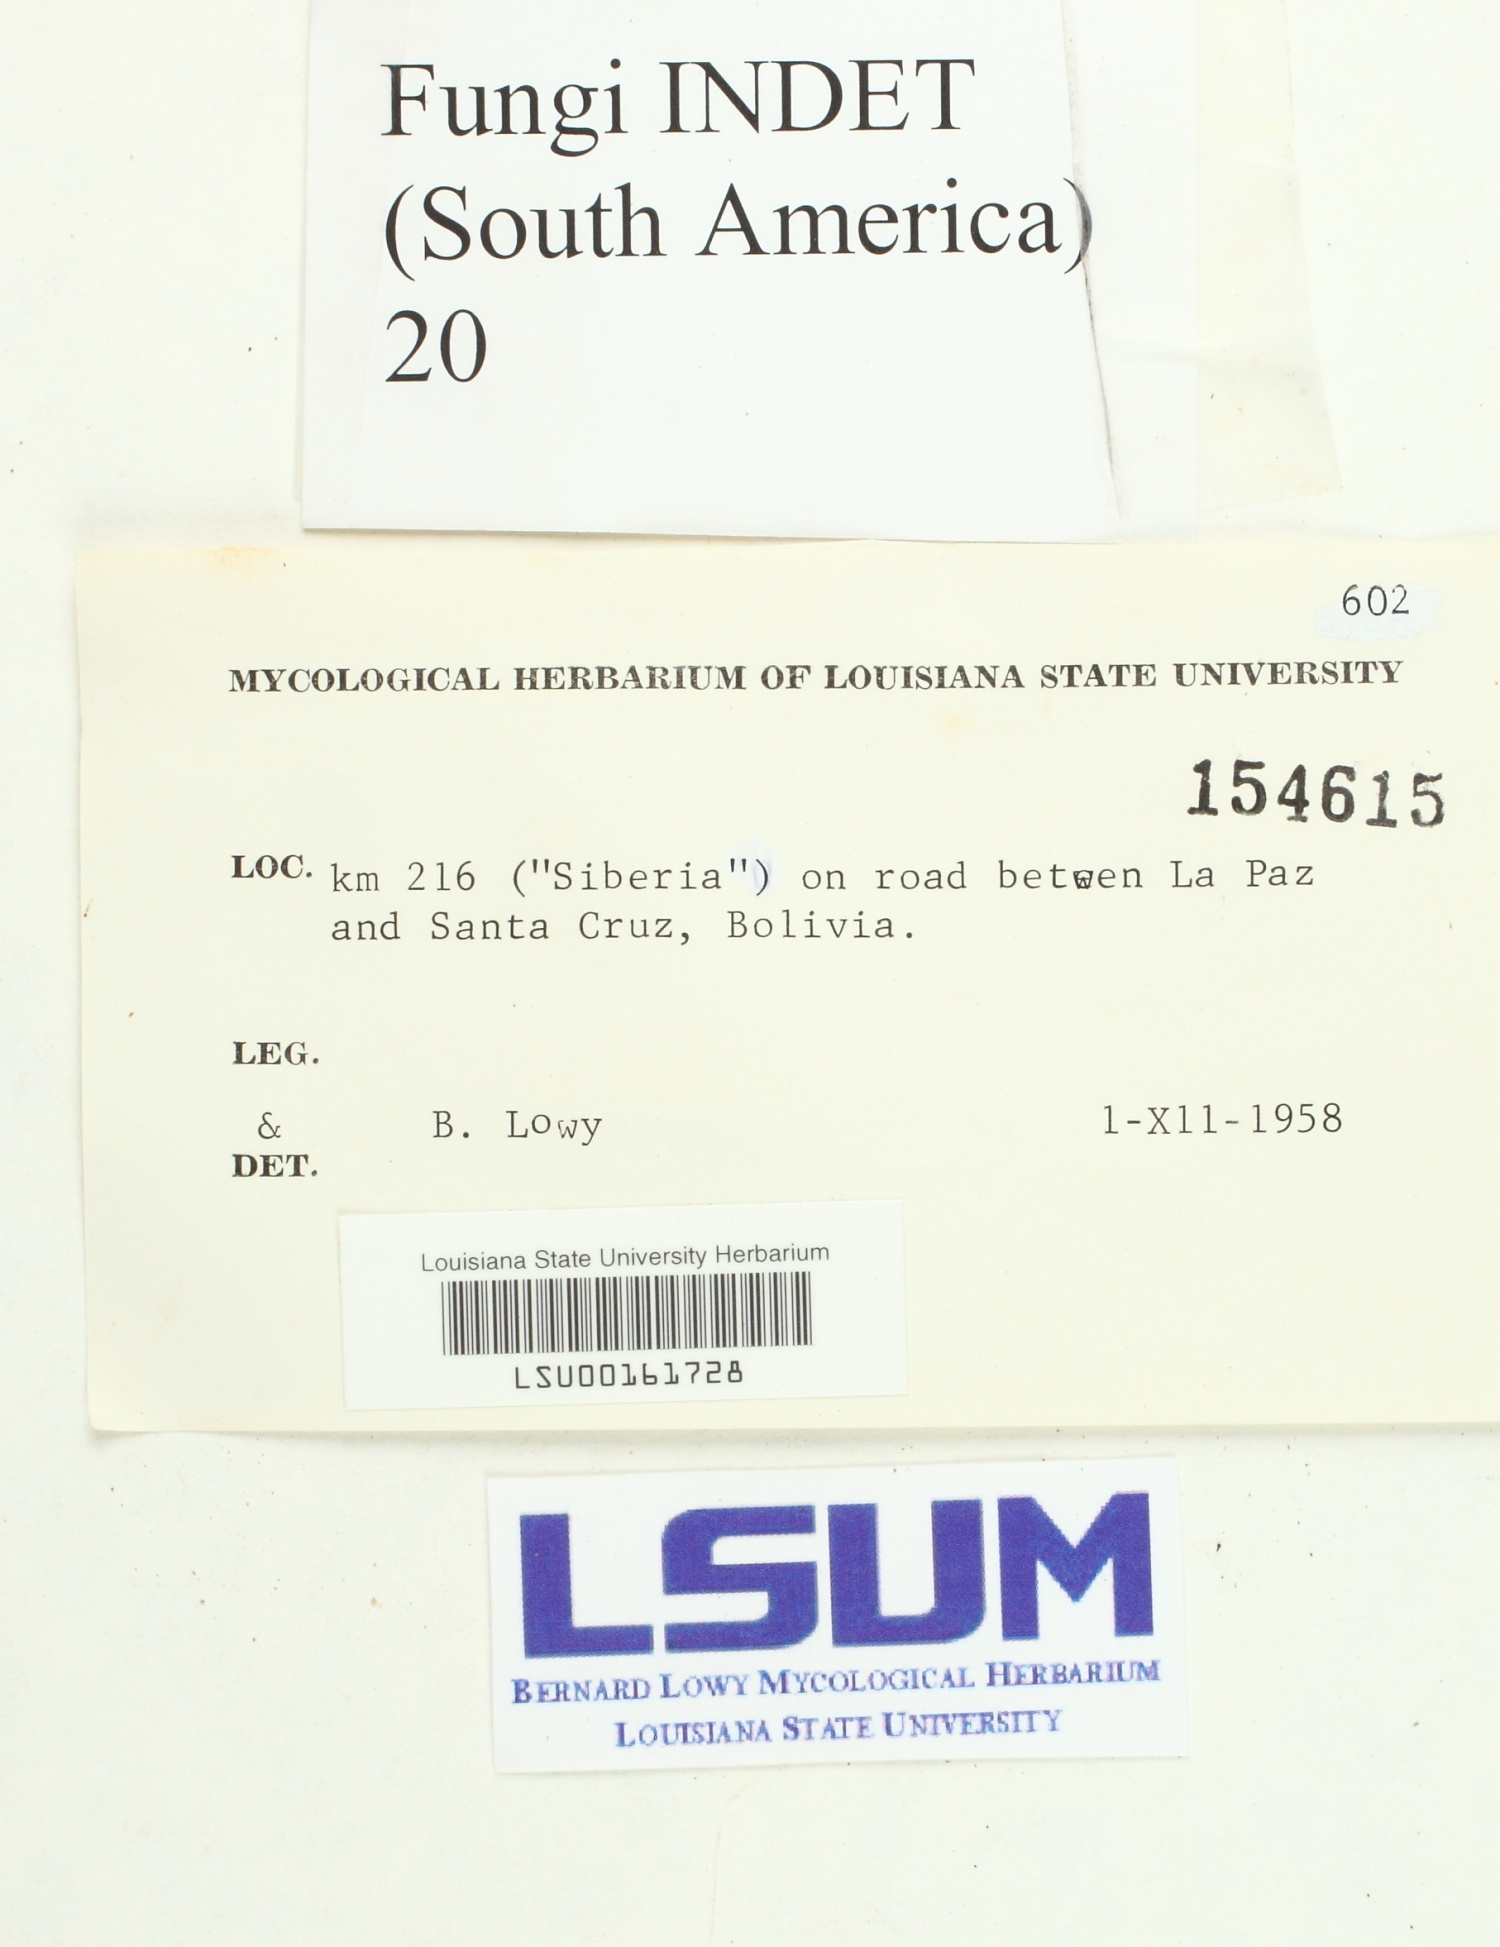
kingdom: Fungi
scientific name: Fungi
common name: Fungi
